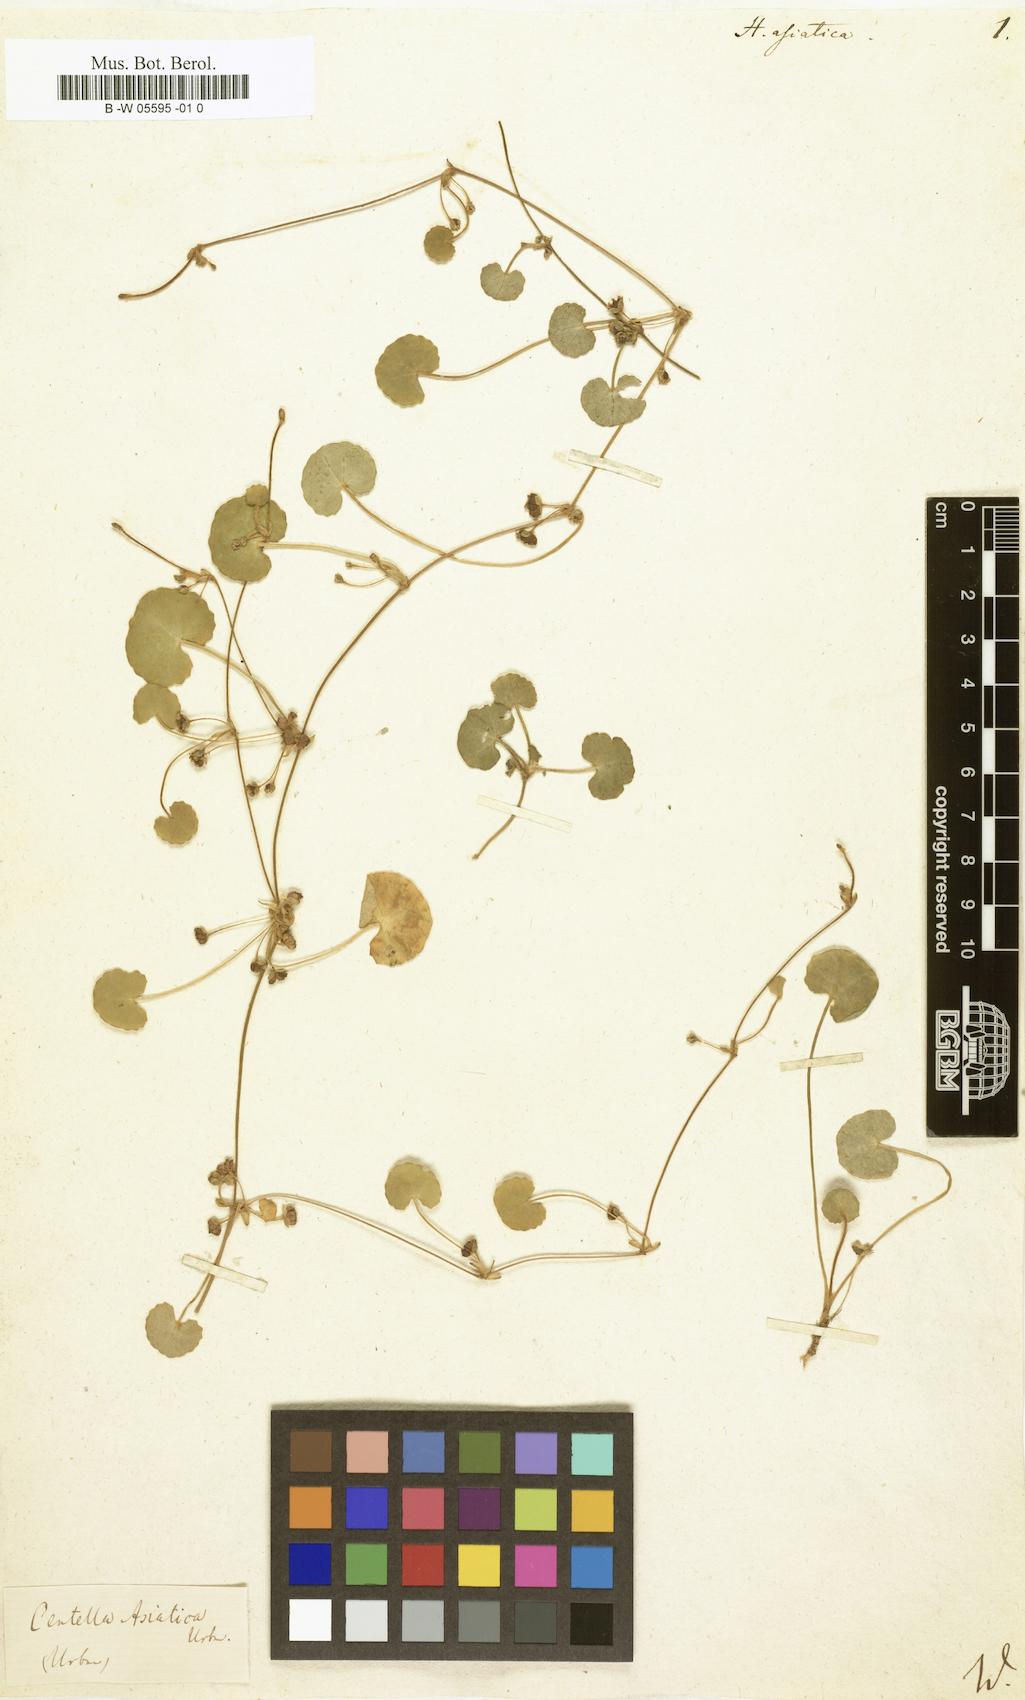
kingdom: Plantae
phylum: Tracheophyta
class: Magnoliopsida
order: Apiales
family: Apiaceae
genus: Centella
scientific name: Centella asiatica
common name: Spadeleaf
